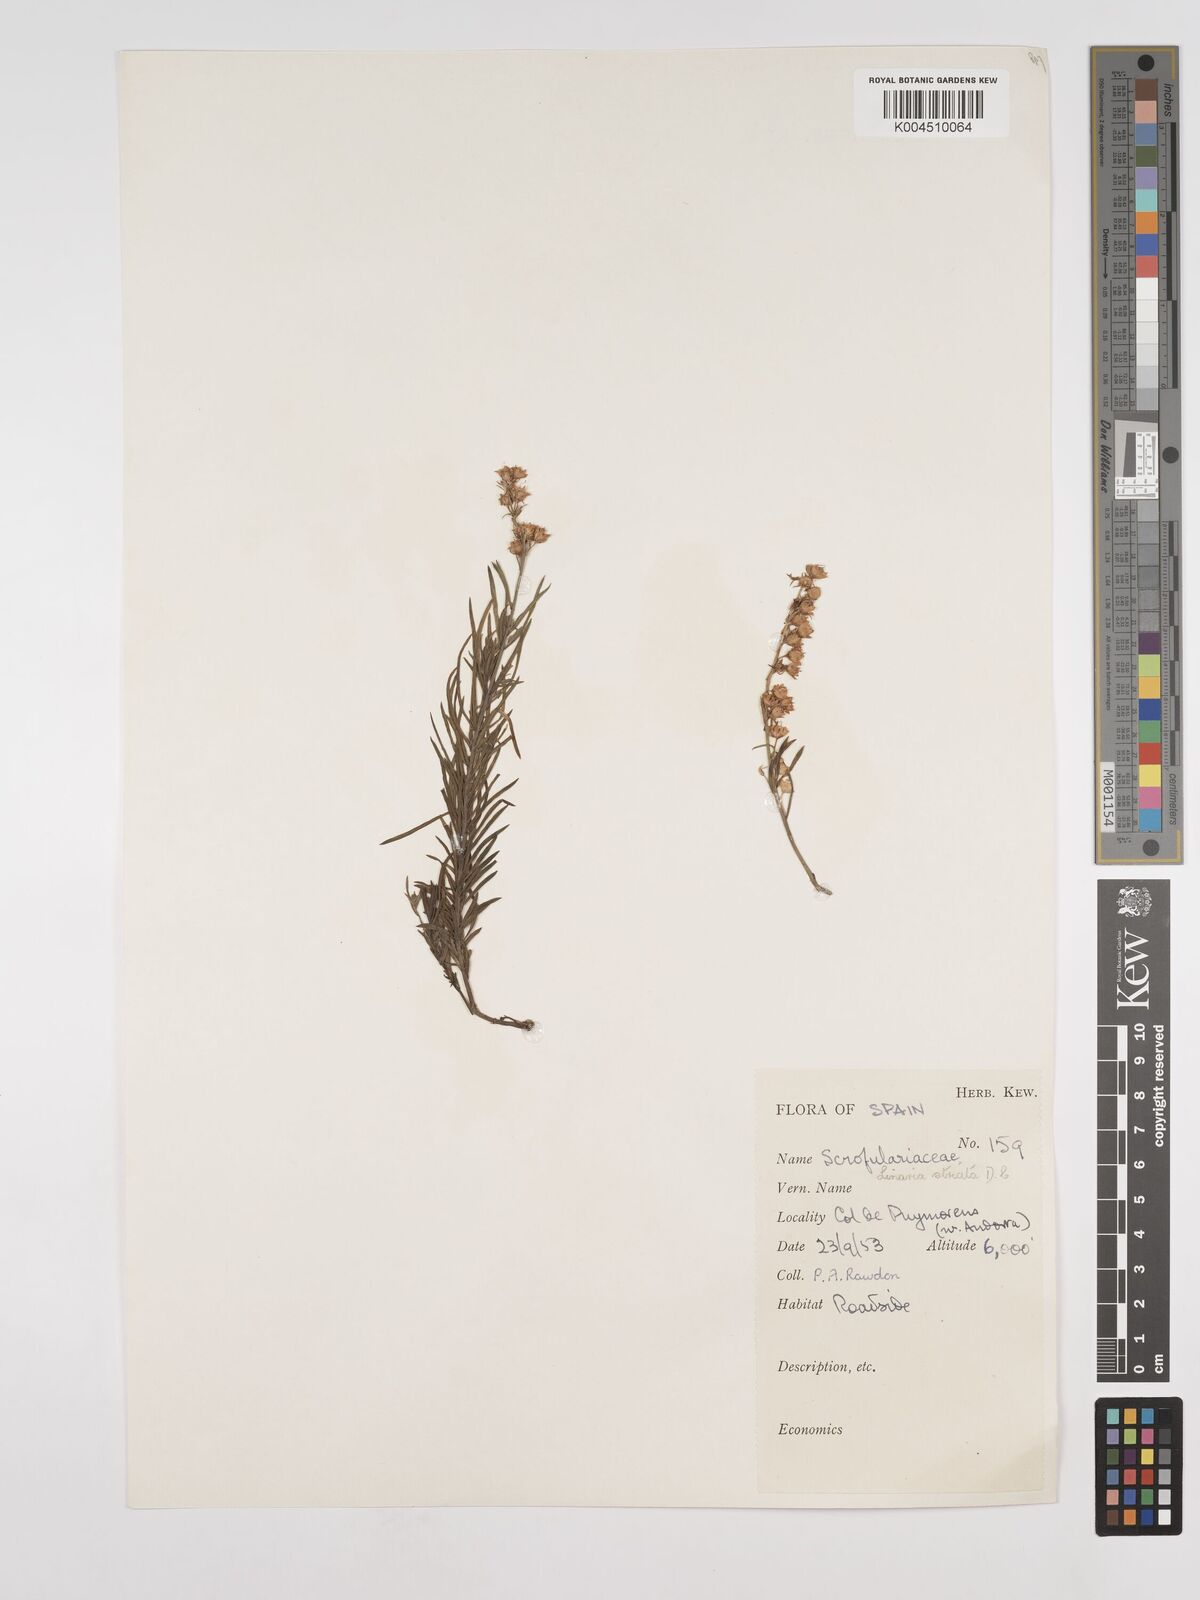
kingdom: Plantae
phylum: Tracheophyta
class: Magnoliopsida
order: Lamiales
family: Plantaginaceae
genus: Linaria
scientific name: Linaria
